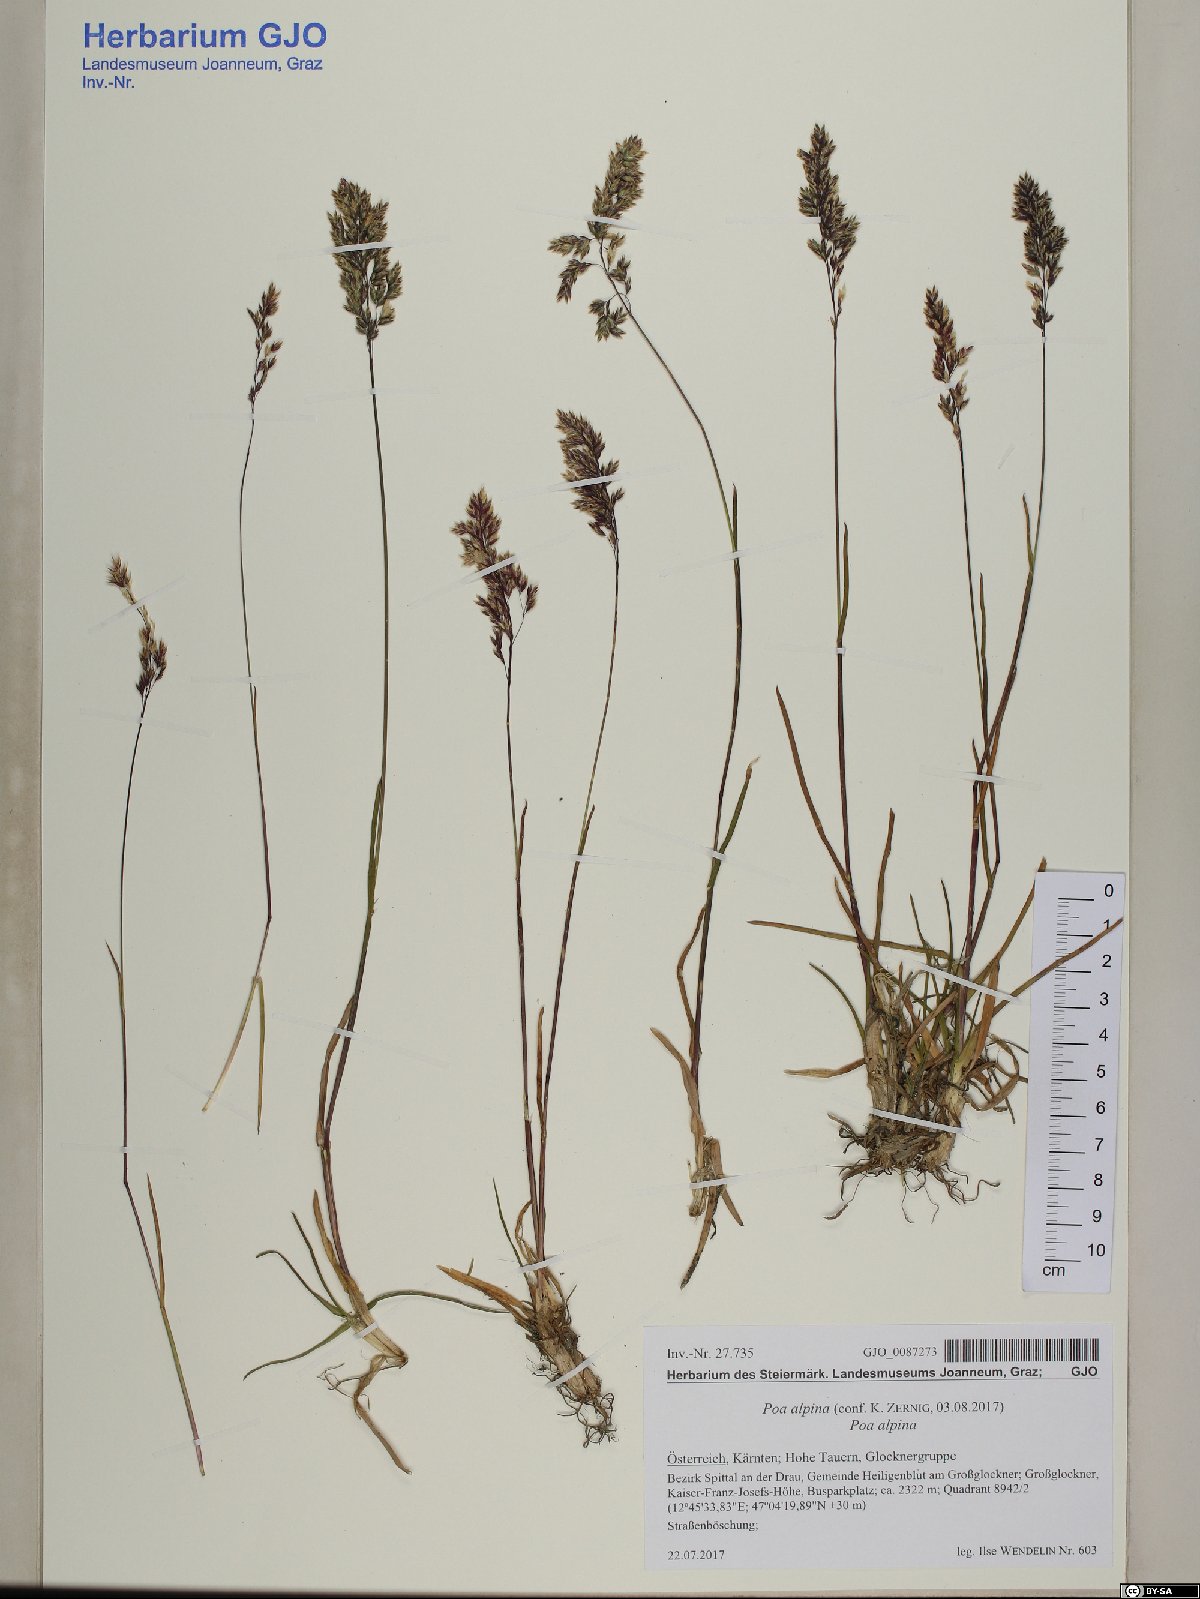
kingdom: Plantae
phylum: Tracheophyta
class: Liliopsida
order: Poales
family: Poaceae
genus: Poa
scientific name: Poa alpina
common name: Alpine bluegrass
